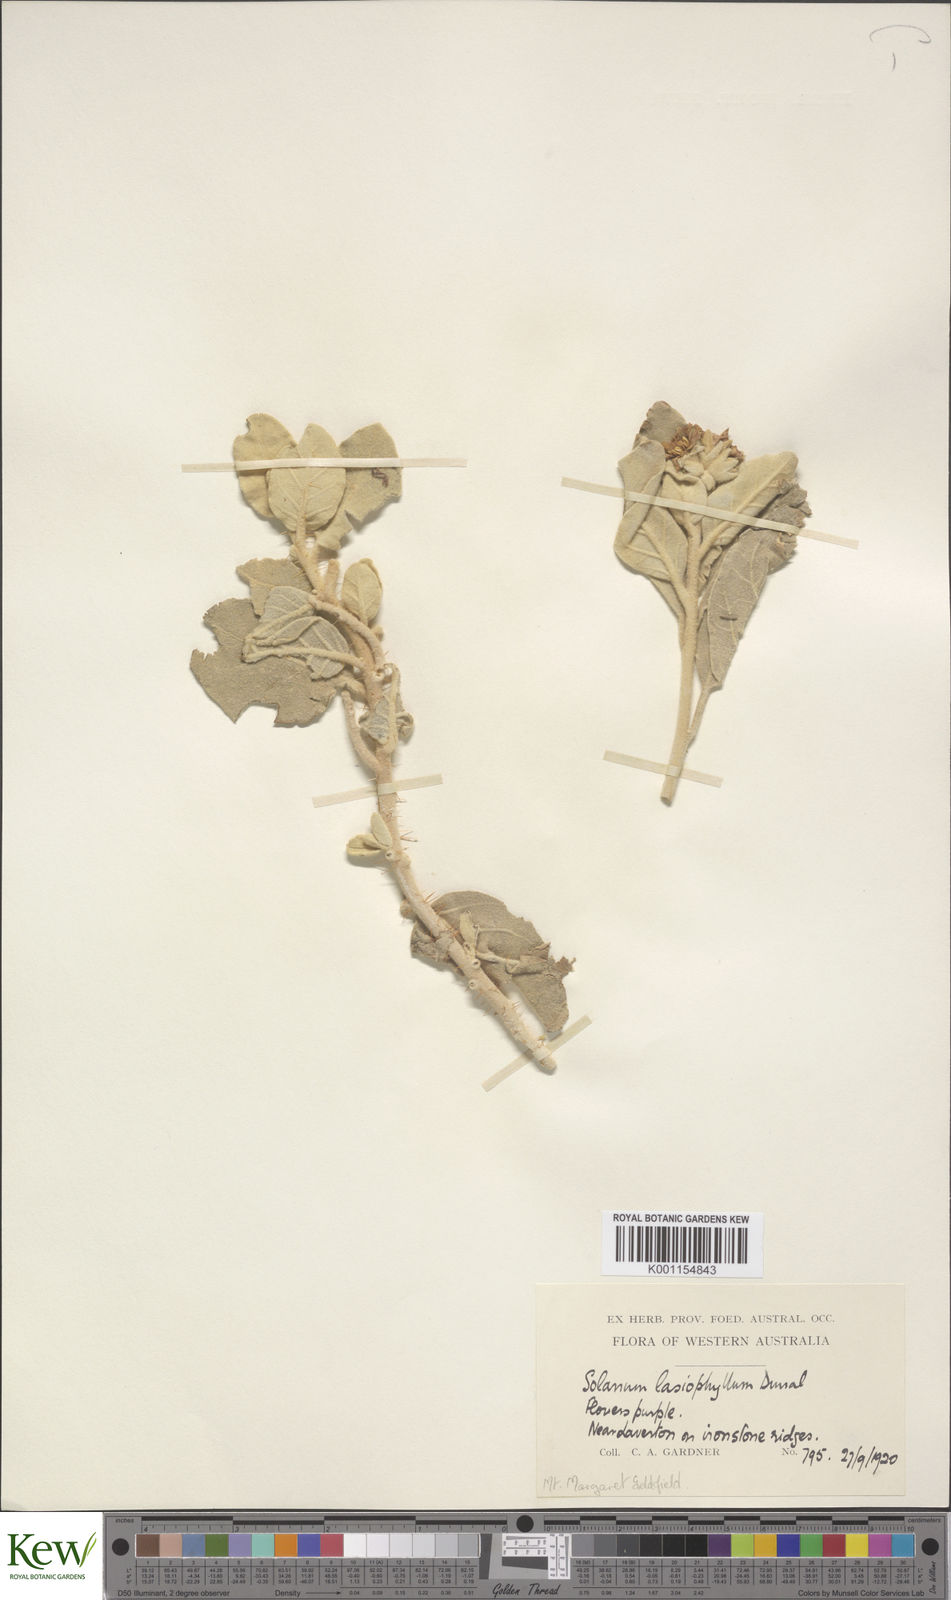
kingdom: Plantae
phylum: Tracheophyta
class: Magnoliopsida
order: Solanales
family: Solanaceae
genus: Solanum
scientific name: Solanum lasiophyllum
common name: Flannelbush
